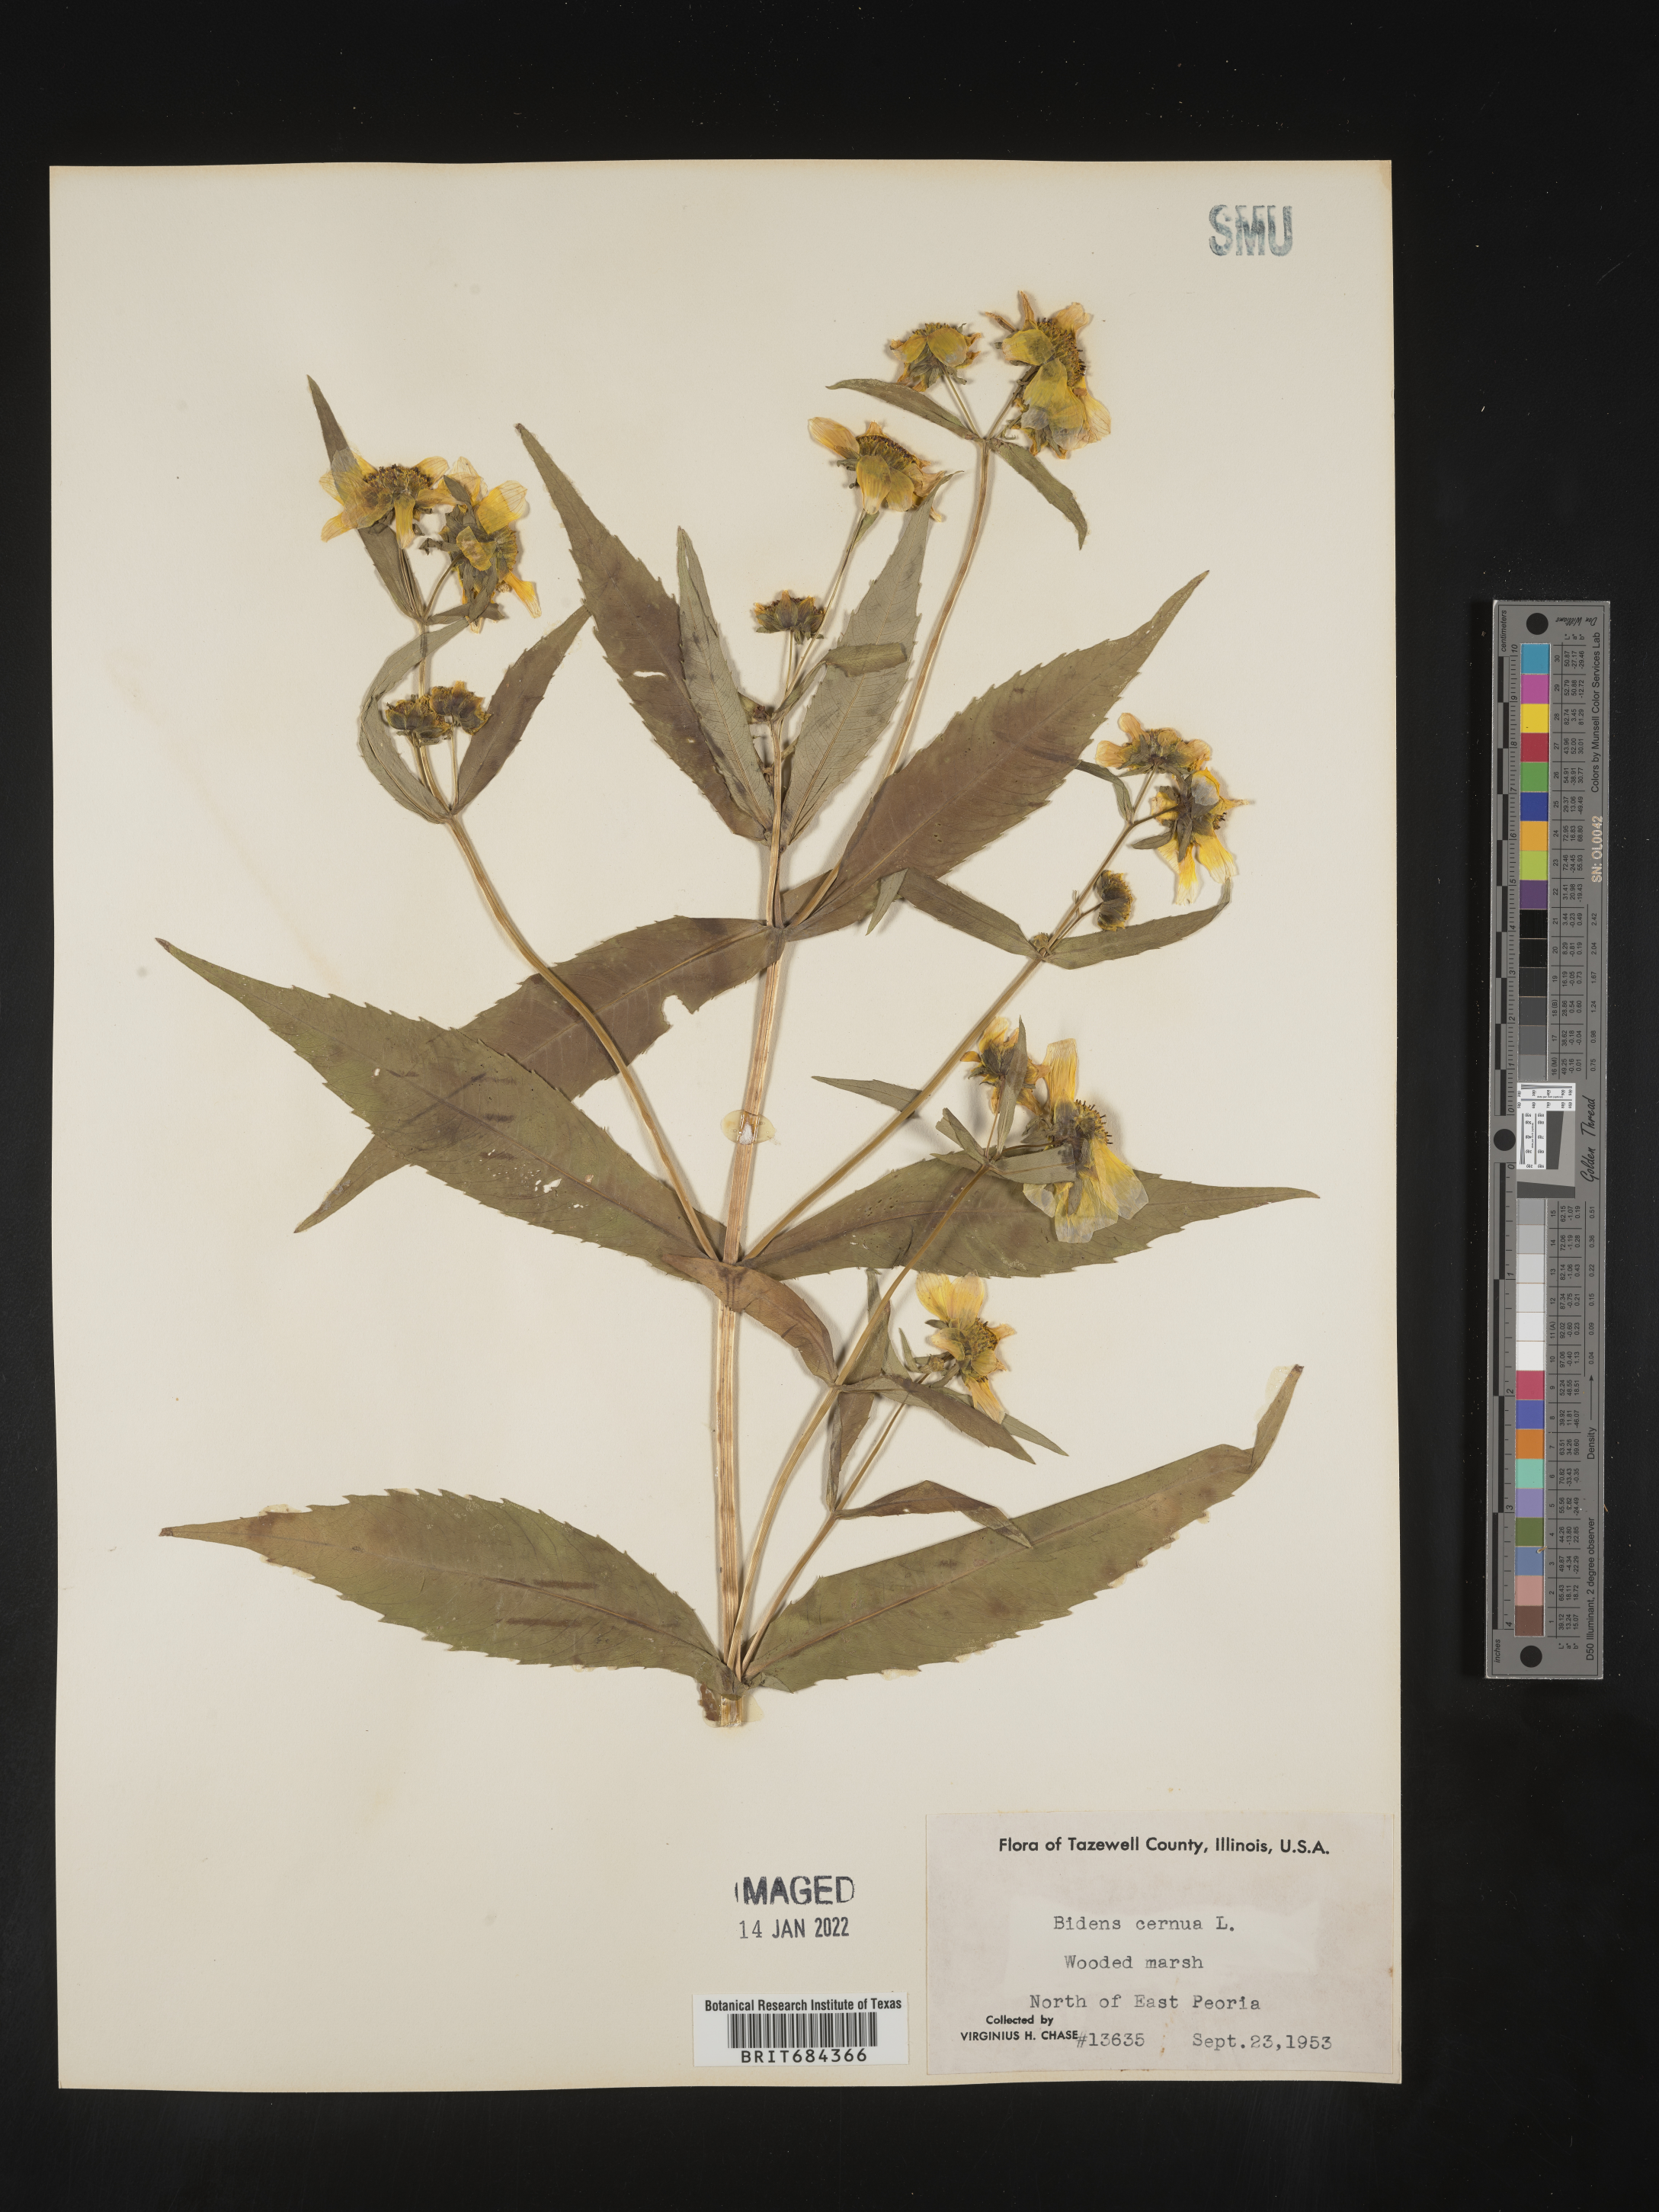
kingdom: Plantae
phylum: Tracheophyta
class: Magnoliopsida
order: Asterales
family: Asteraceae
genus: Bidens
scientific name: Bidens cernua
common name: Nodding bur-marigold
